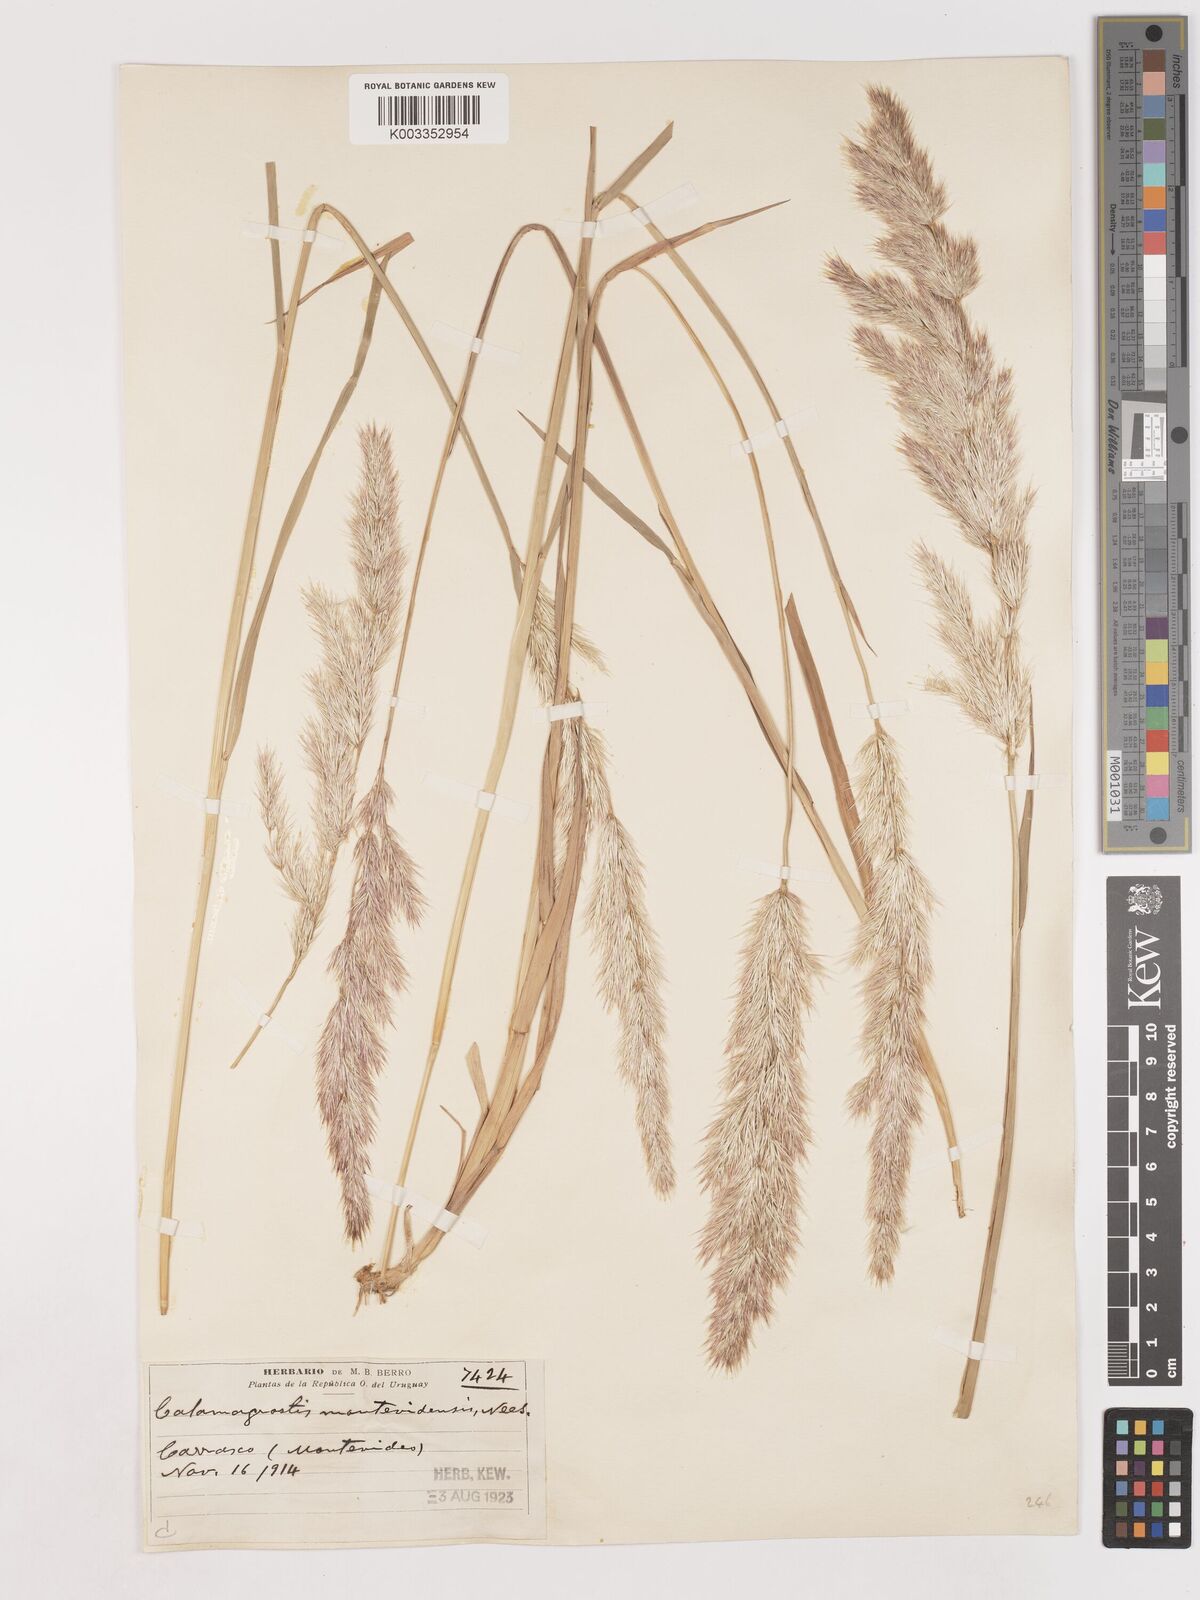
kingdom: Plantae
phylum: Tracheophyta
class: Liliopsida
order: Poales
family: Poaceae
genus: Cinnagrostis
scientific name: Cinnagrostis viridiflavescens
